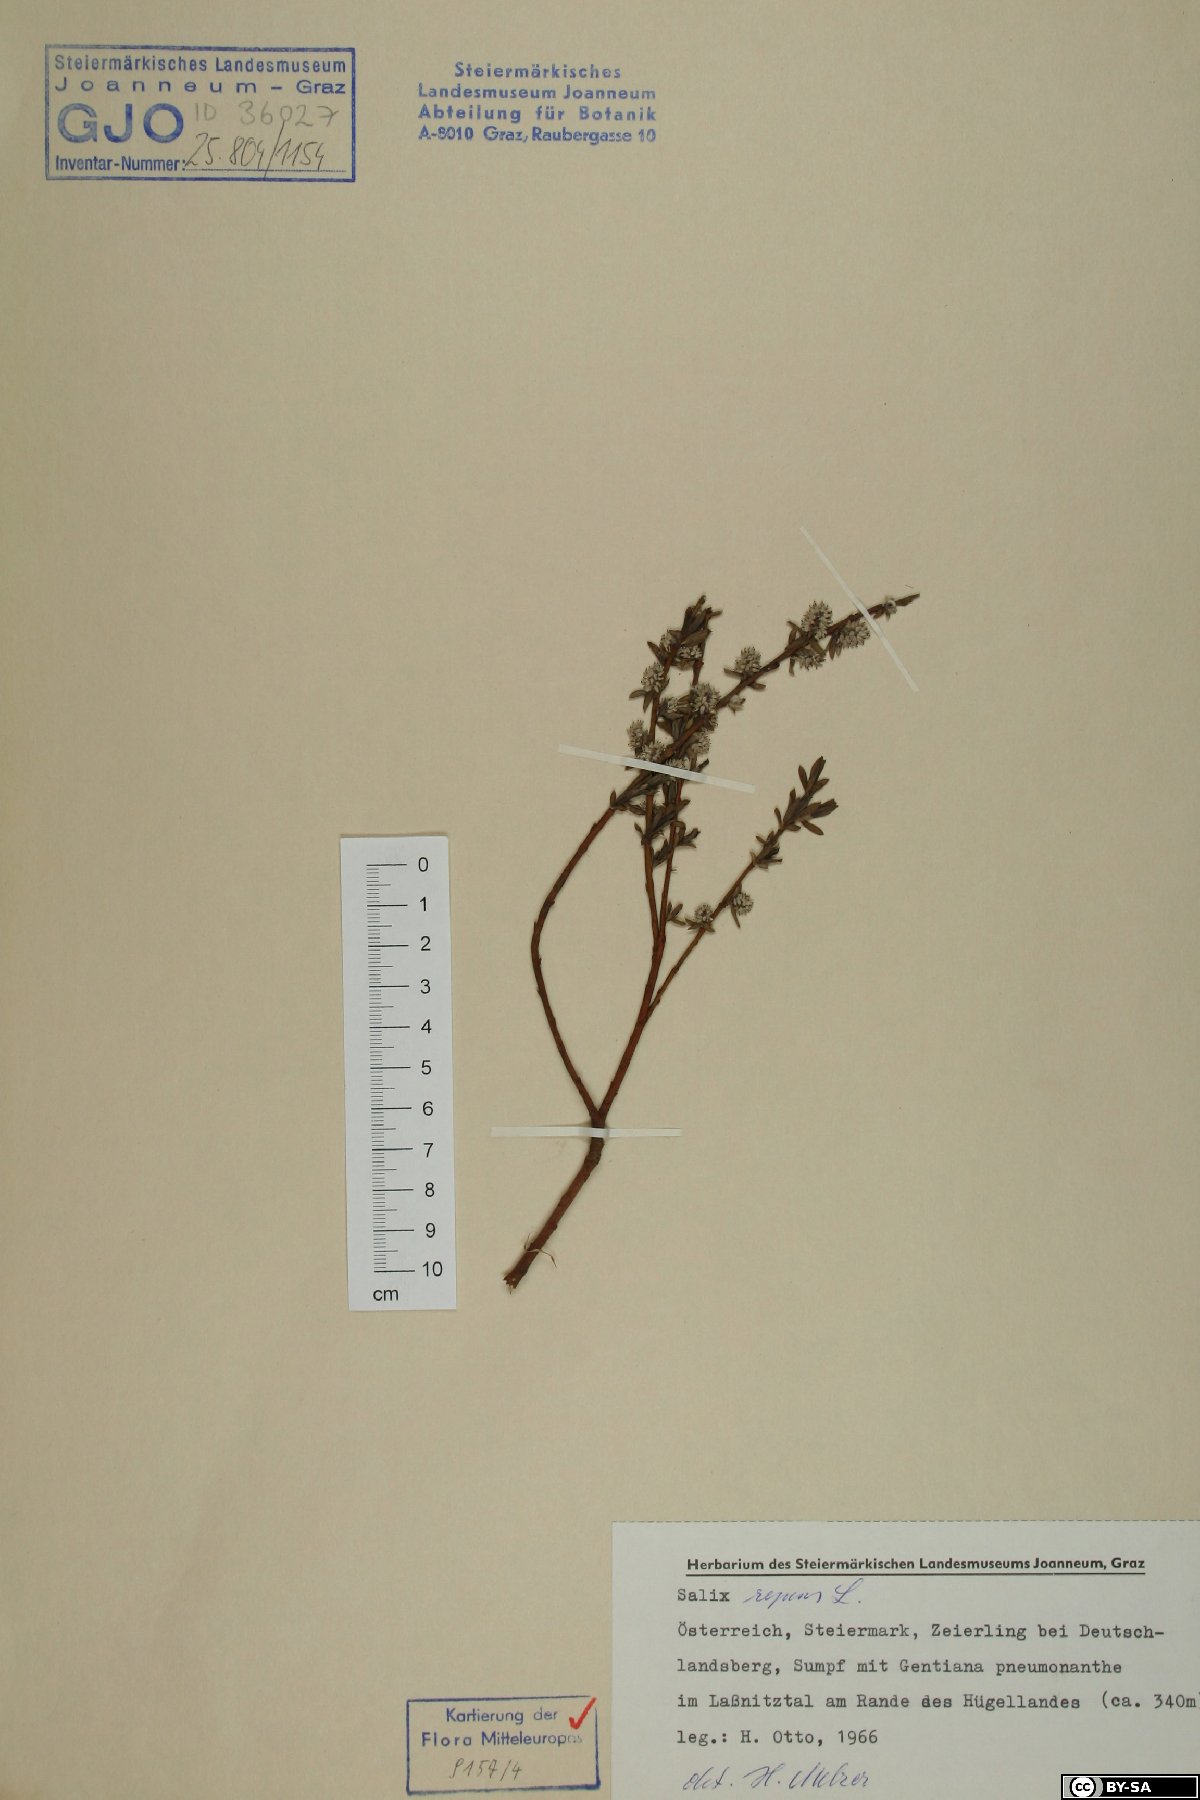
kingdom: Plantae
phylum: Tracheophyta
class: Magnoliopsida
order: Malpighiales
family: Salicaceae
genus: Salix
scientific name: Salix repens
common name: Creeping willow
